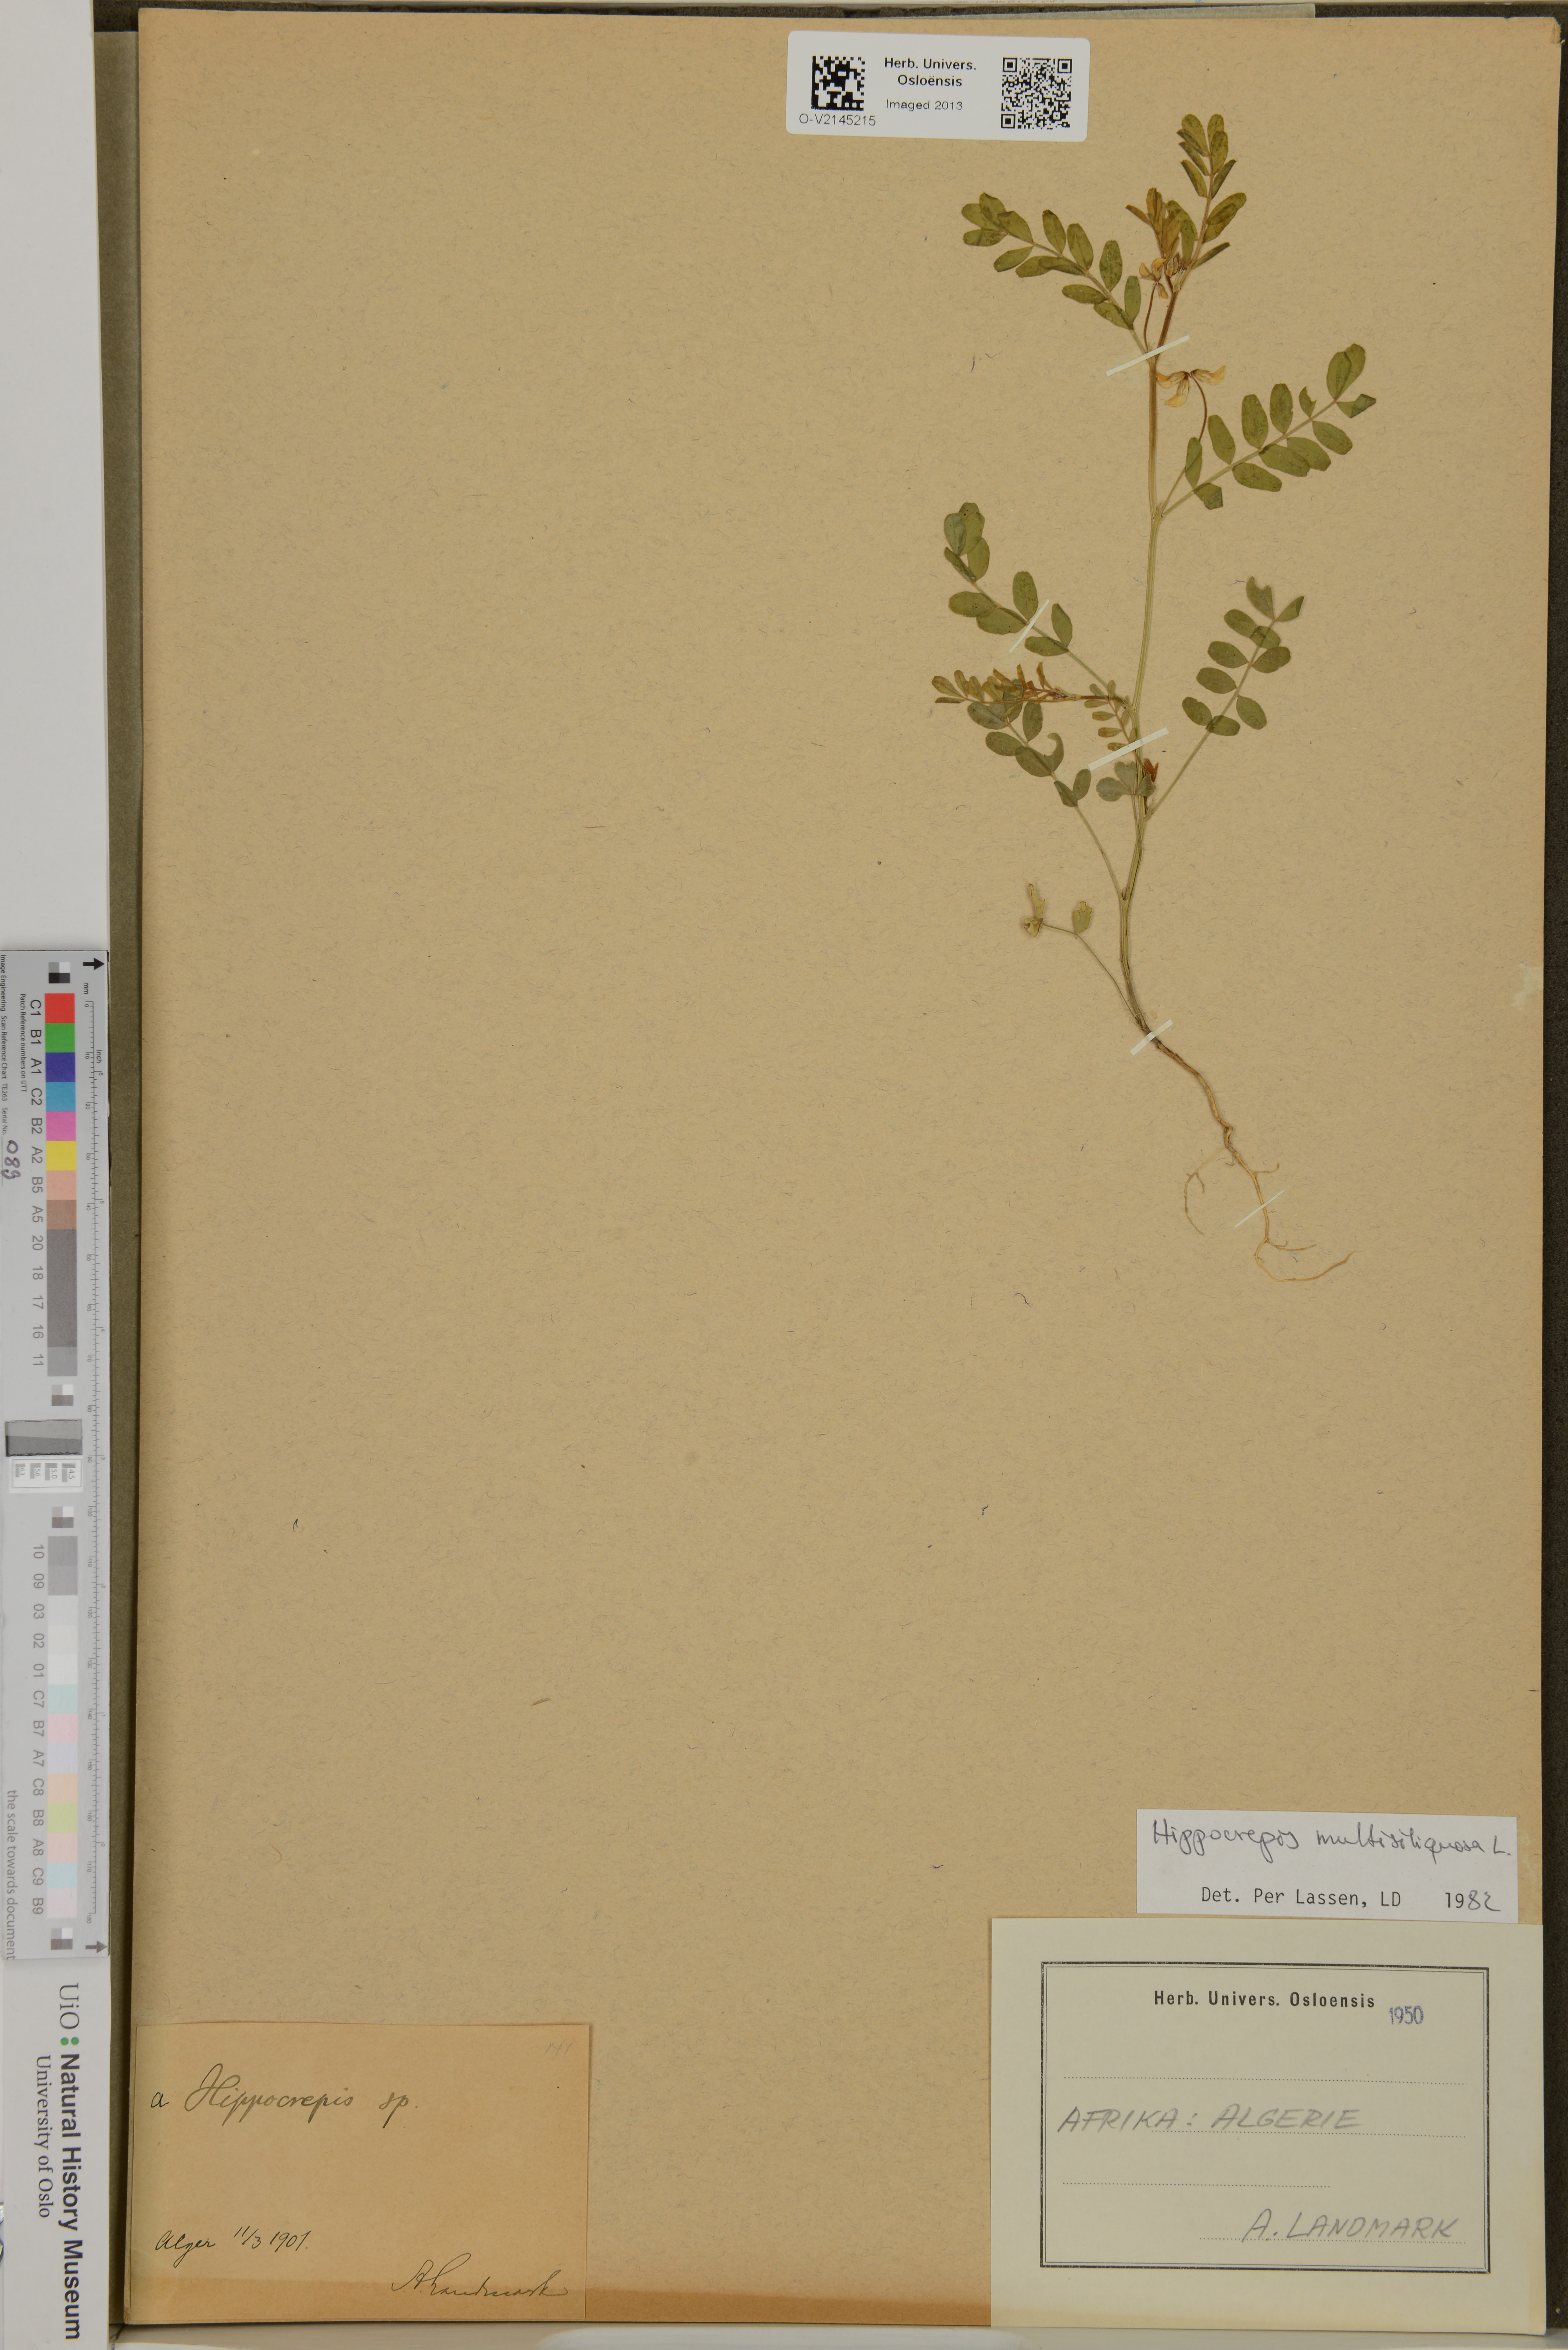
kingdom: Plantae
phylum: Tracheophyta
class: Magnoliopsida
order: Fabales
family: Fabaceae
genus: Hippocrepis
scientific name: Hippocrepis multisiliquosa
